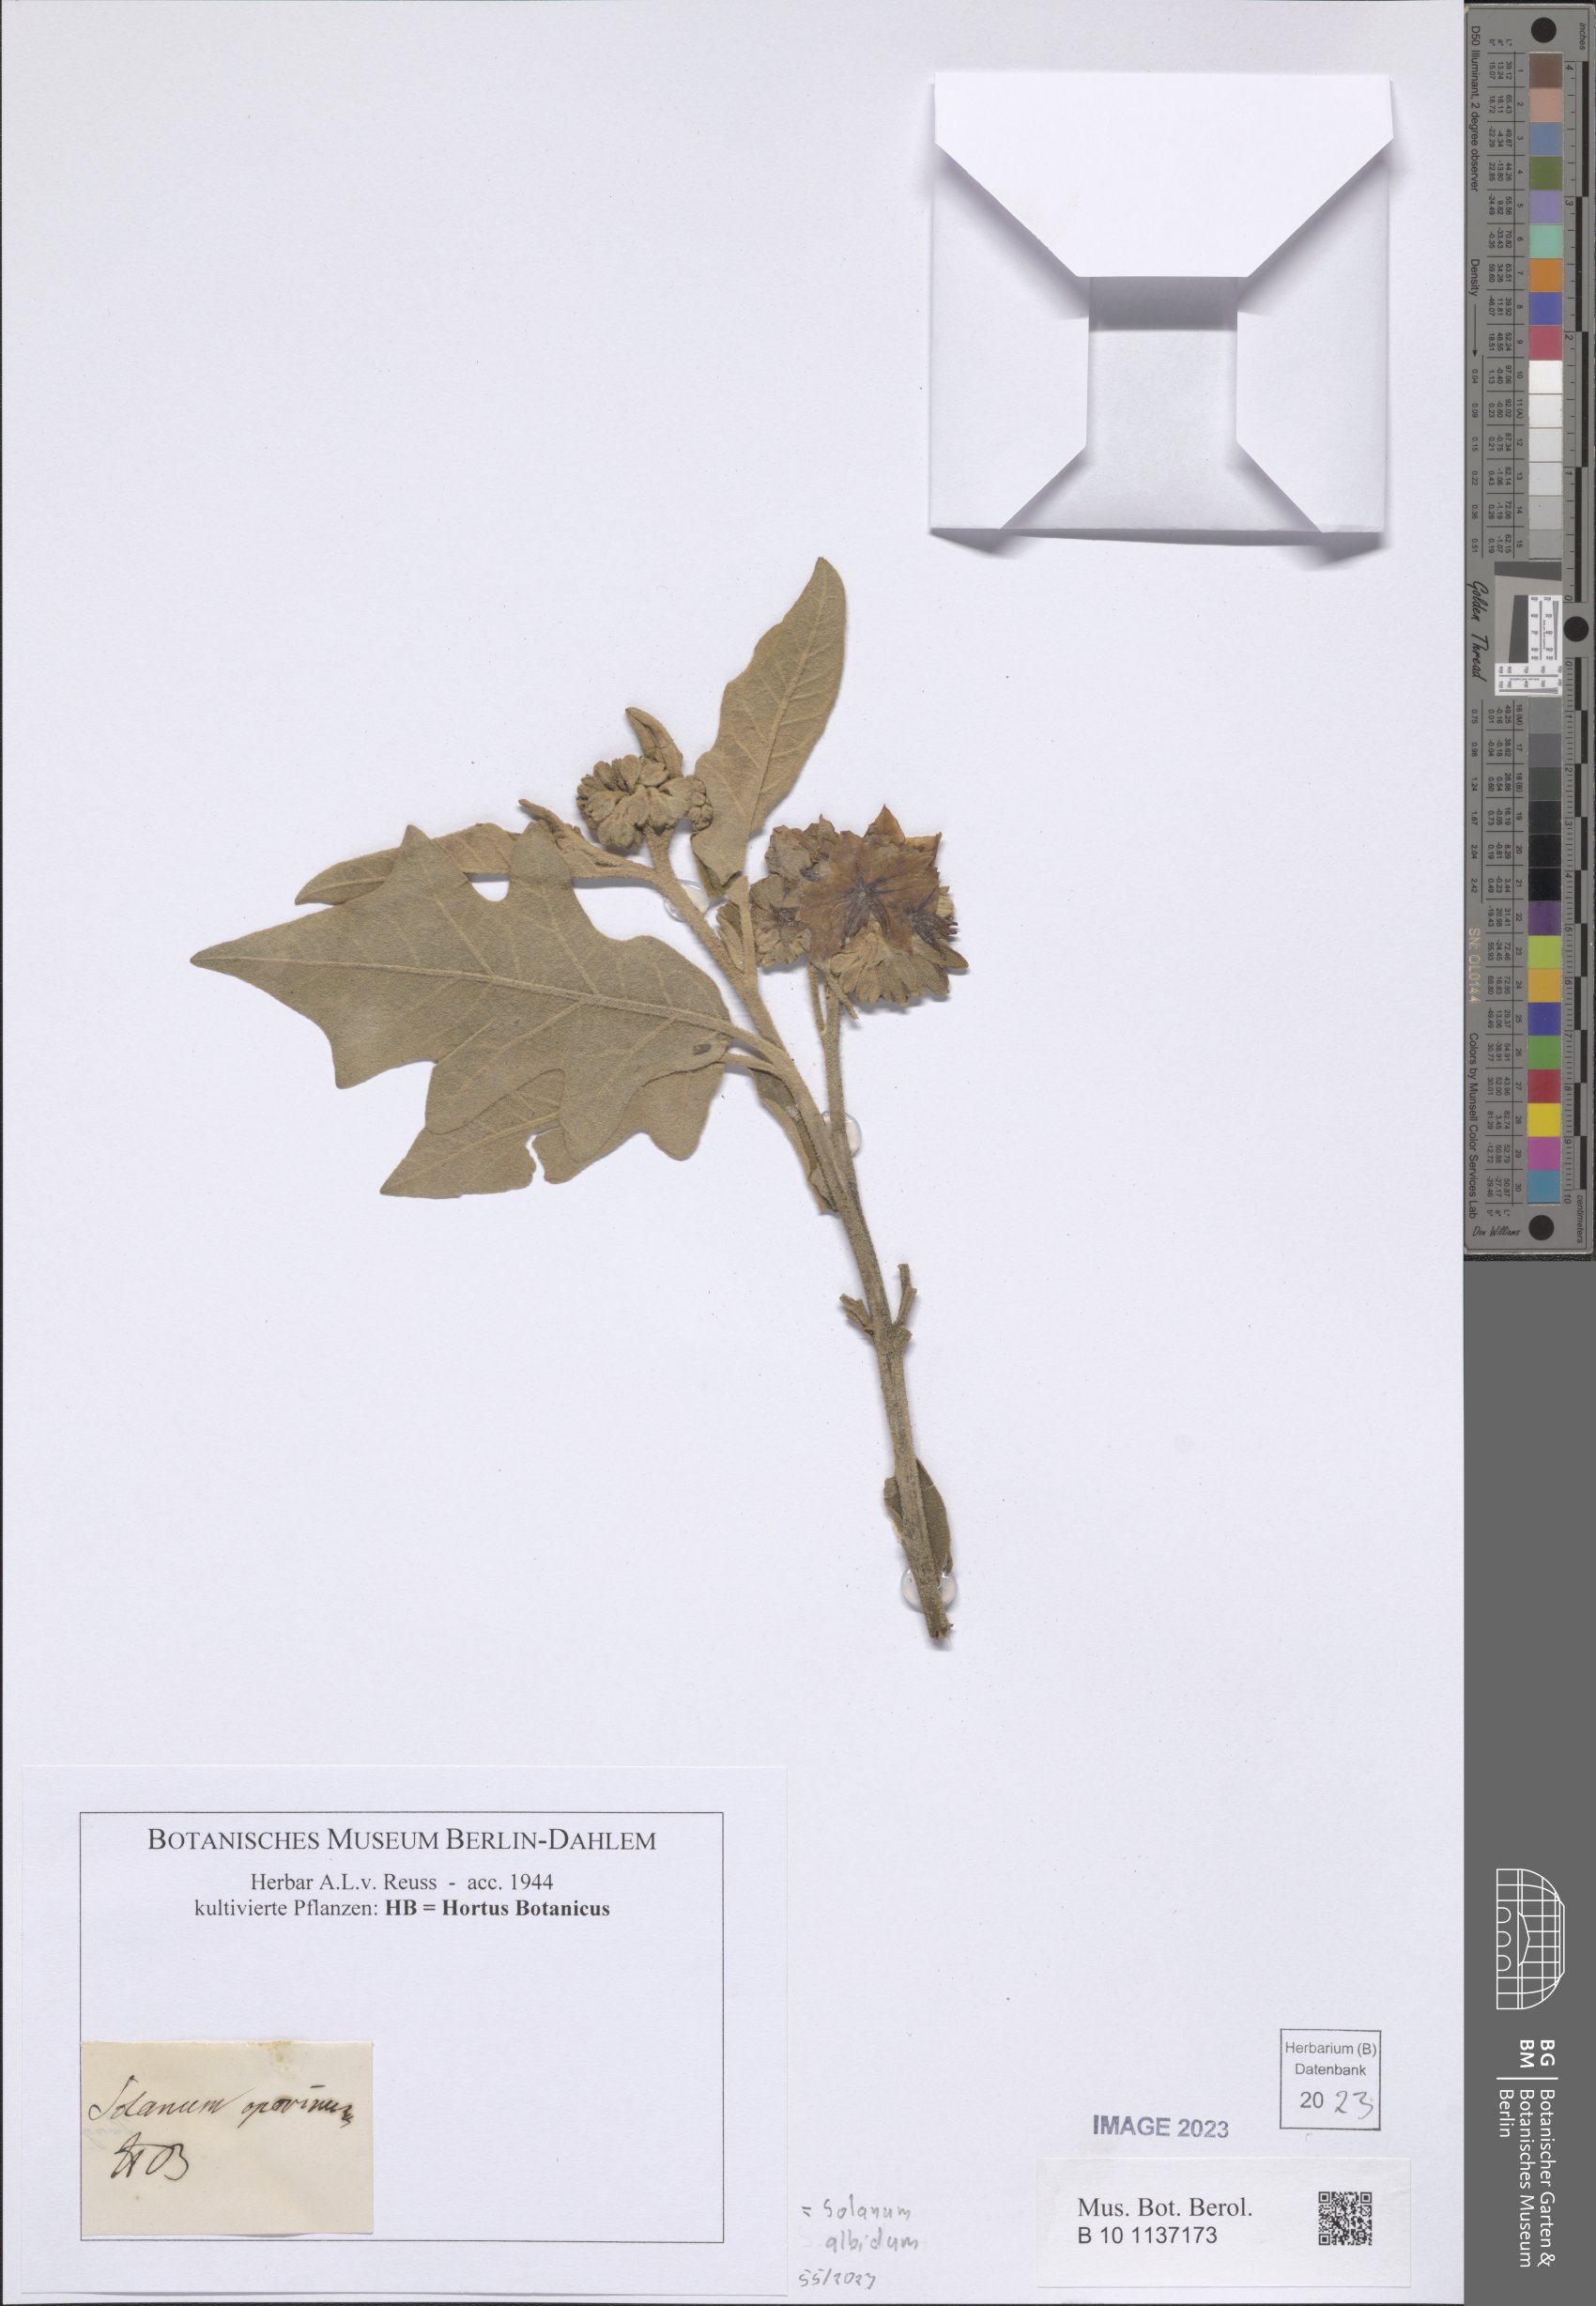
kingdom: Plantae
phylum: Tracheophyta
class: Magnoliopsida
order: Solanales
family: Solanaceae
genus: Solanum
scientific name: Solanum albidum
